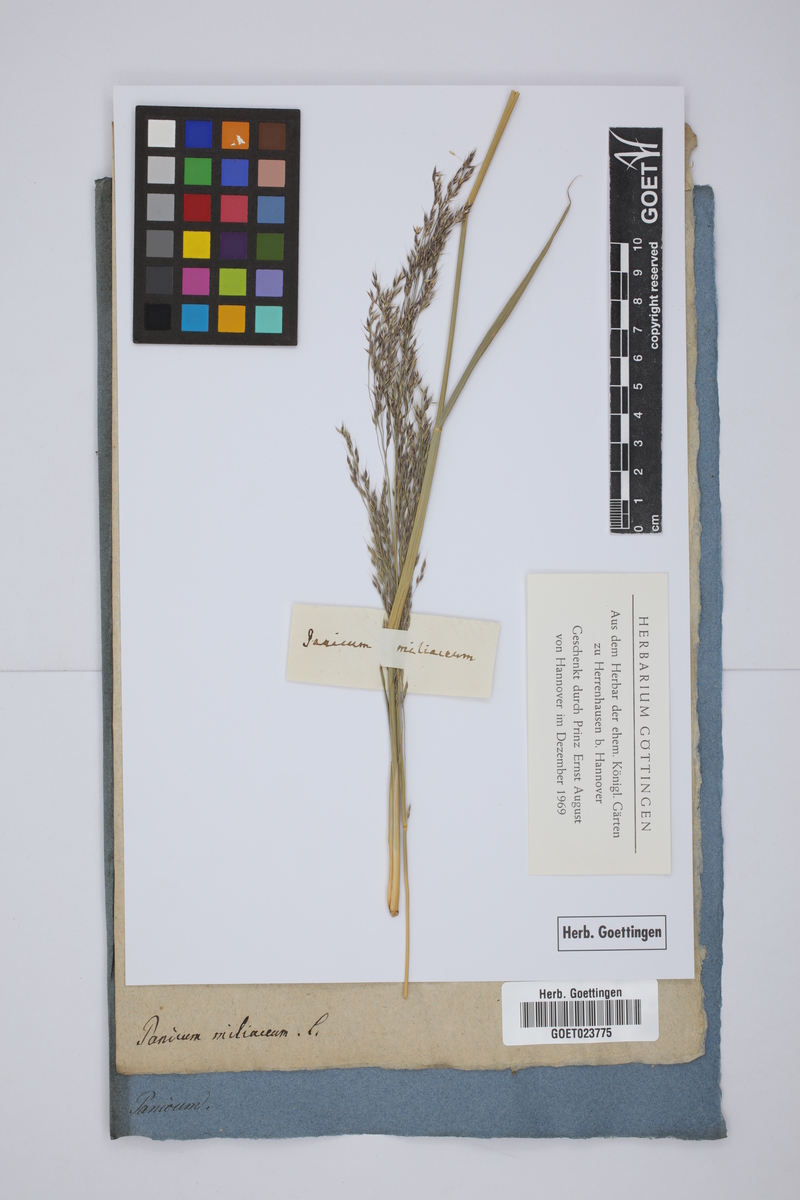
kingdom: Plantae
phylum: Tracheophyta
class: Liliopsida
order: Poales
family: Poaceae
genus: Panicum
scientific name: Panicum miliaceum
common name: Common millet
